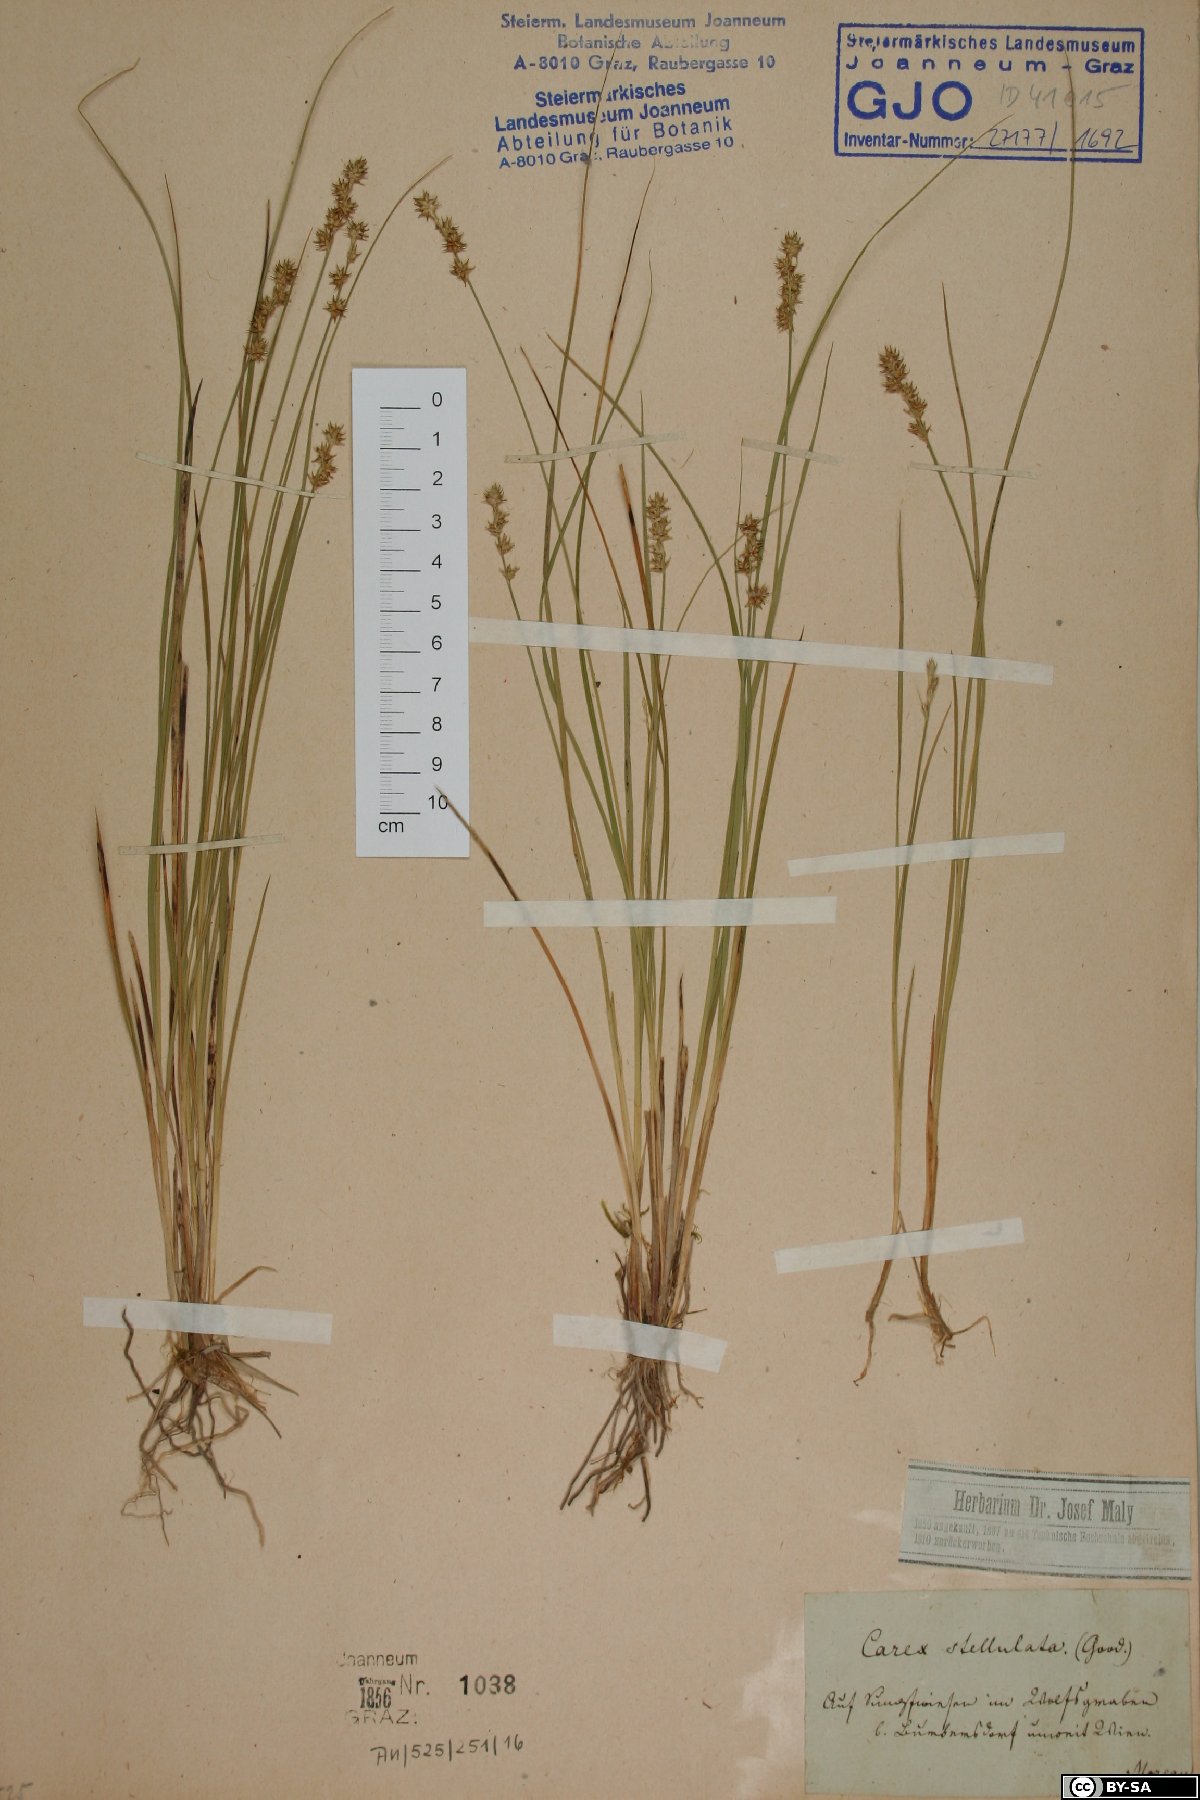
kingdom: Plantae
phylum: Tracheophyta
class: Liliopsida
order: Poales
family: Cyperaceae
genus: Carex
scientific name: Carex echinata
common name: Star sedge
